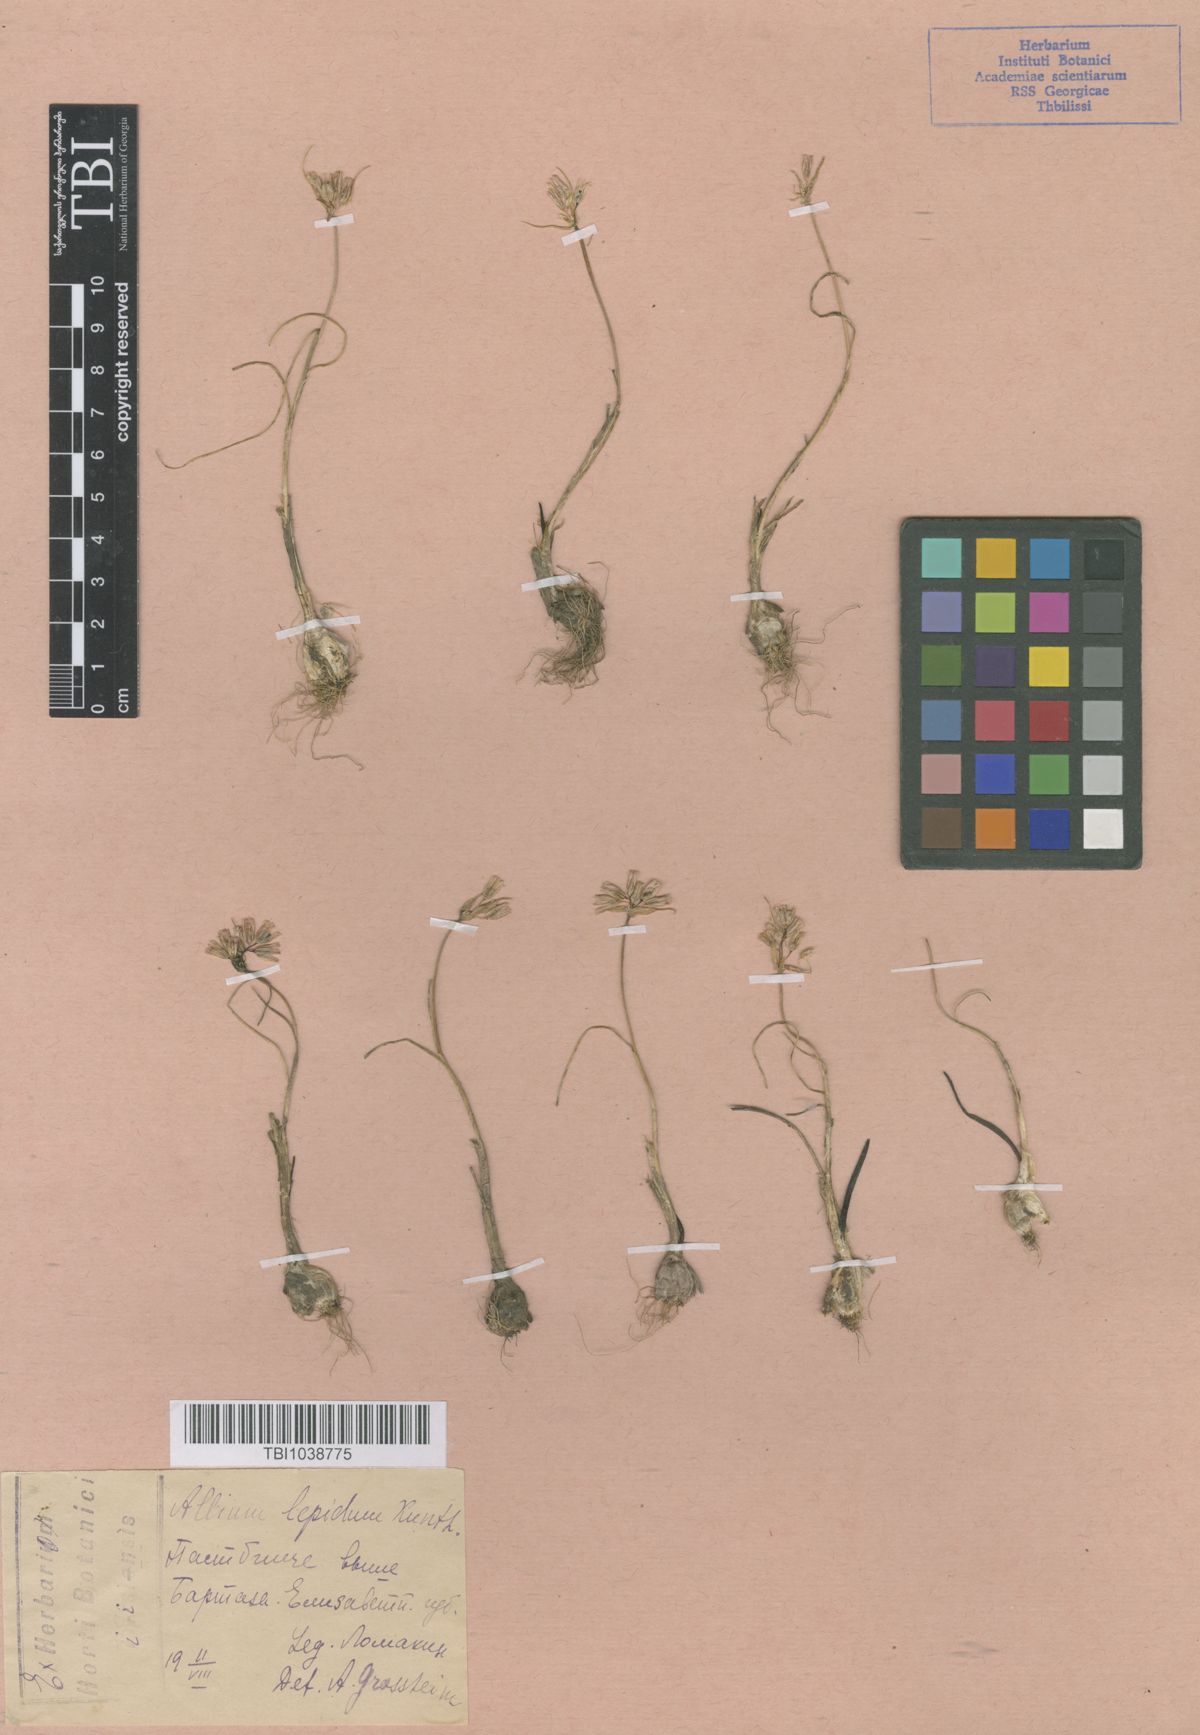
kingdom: Plantae
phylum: Tracheophyta
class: Liliopsida
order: Asparagales
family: Amaryllidaceae
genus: Allium
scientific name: Allium kunthianum
